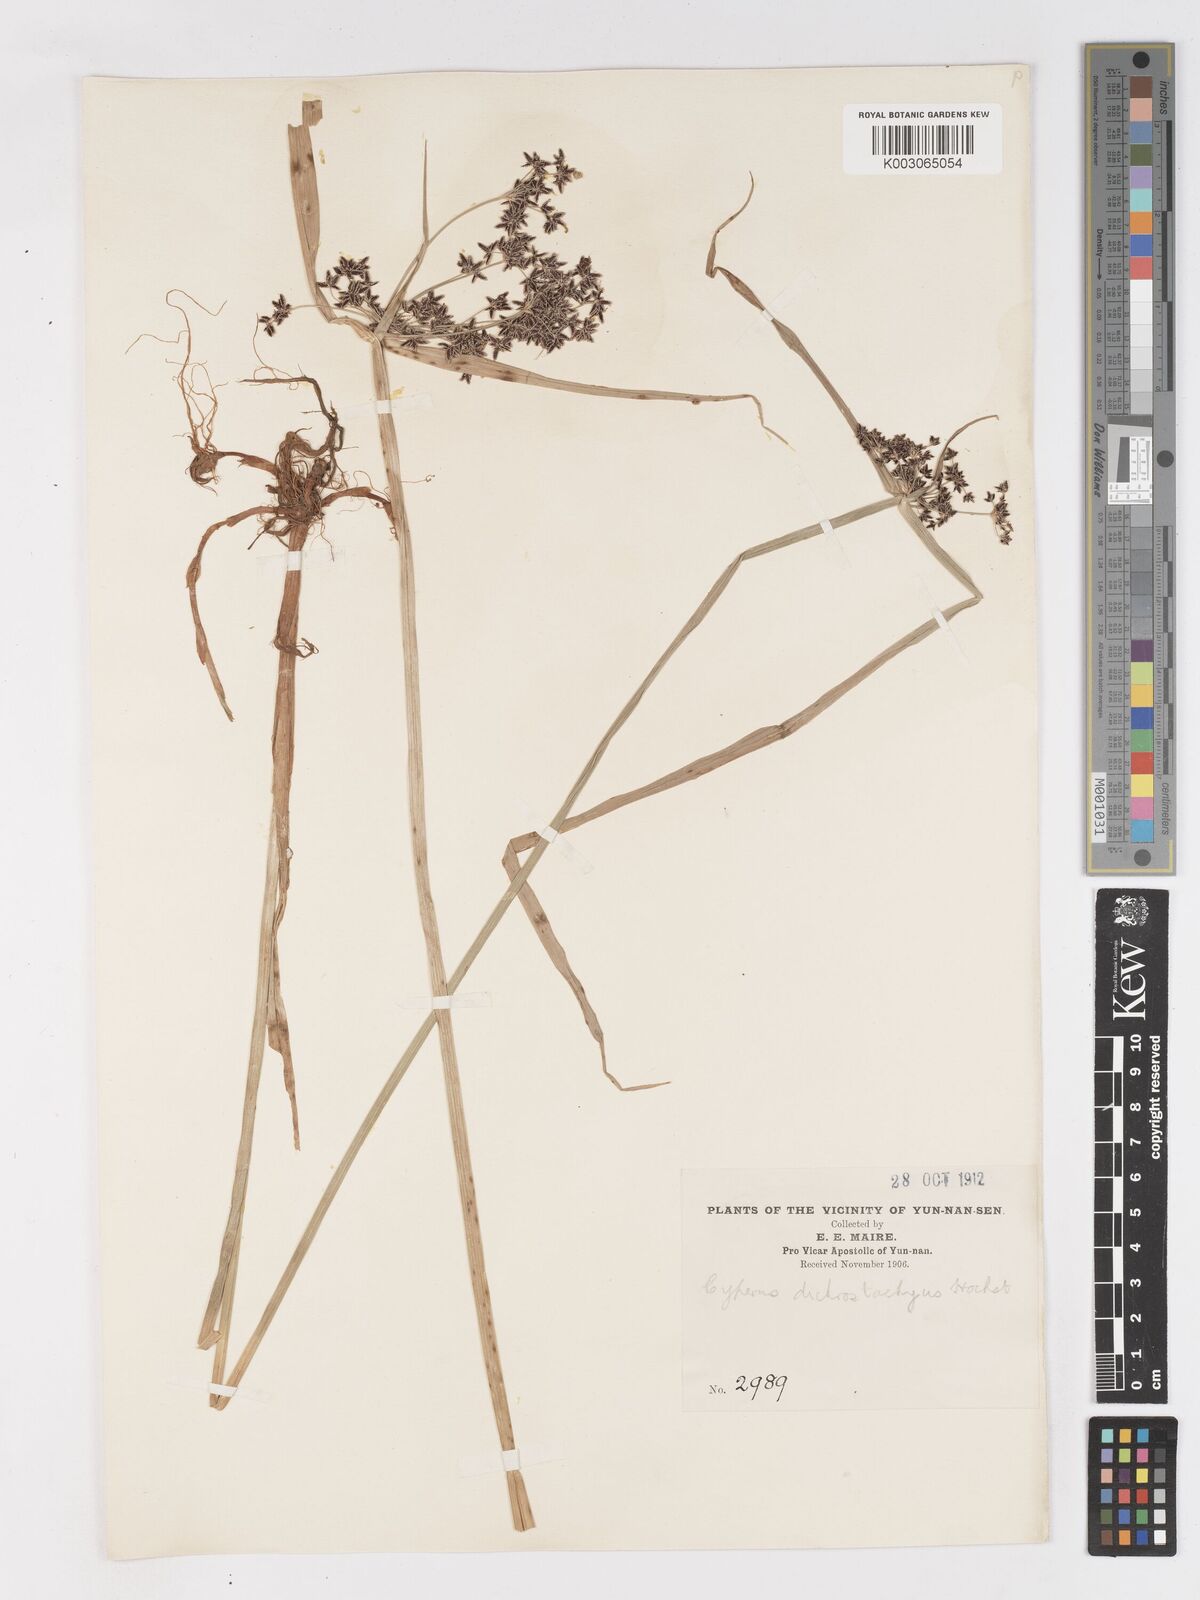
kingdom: Plantae
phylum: Tracheophyta
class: Liliopsida
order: Poales
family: Cyperaceae
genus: Cyperus
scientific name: Cyperus dichrostachyus
